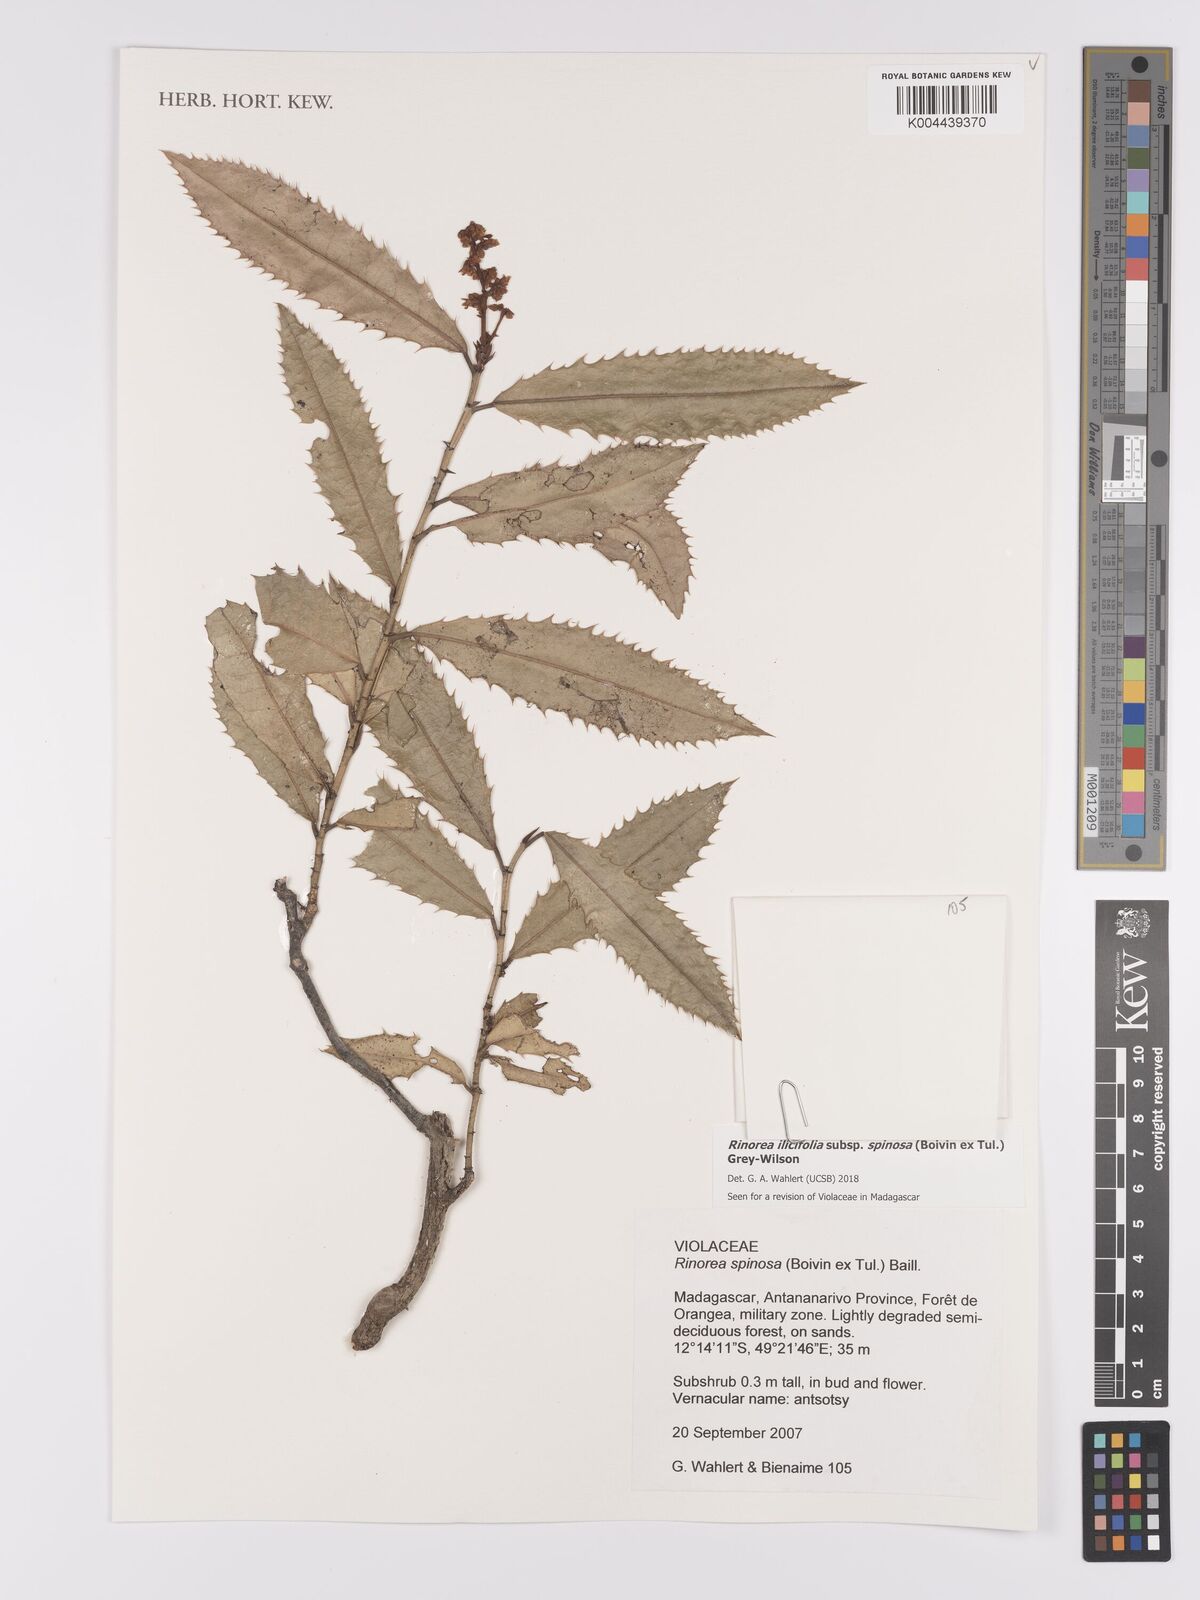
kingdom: Plantae
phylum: Tracheophyta
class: Magnoliopsida
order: Malpighiales
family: Violaceae
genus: Rinorea
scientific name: Rinorea spinosa
